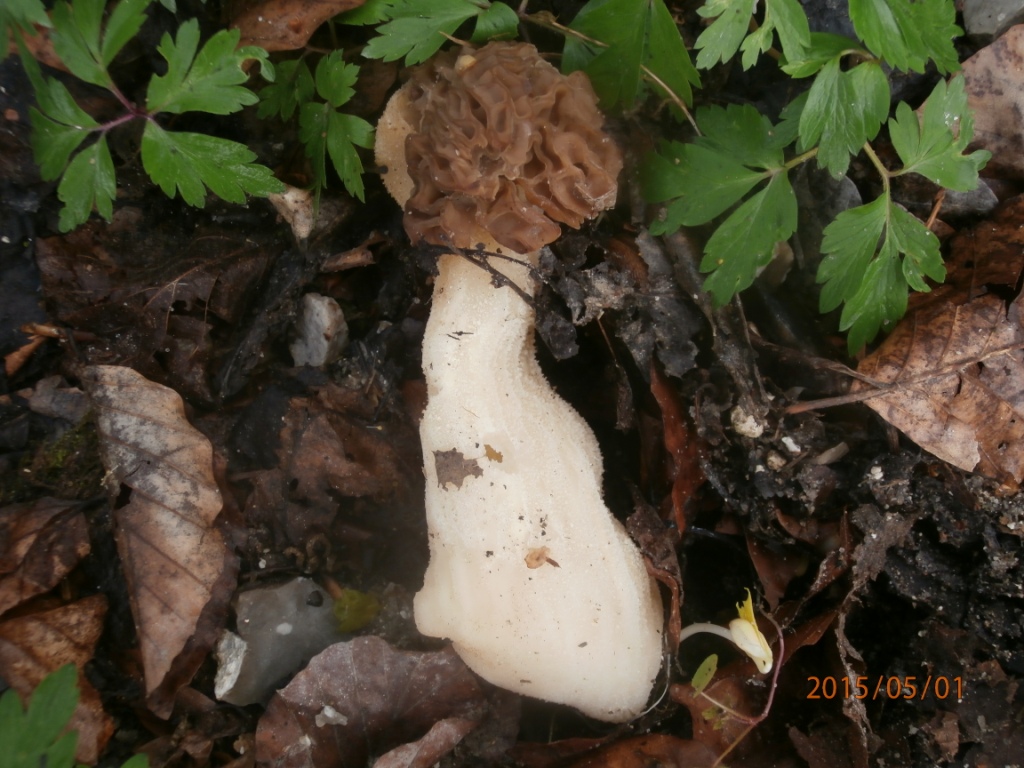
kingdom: Fungi
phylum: Ascomycota
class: Pezizomycetes
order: Pezizales
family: Morchellaceae
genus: Morchella
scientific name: Morchella semilibera
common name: hætte-morkel
